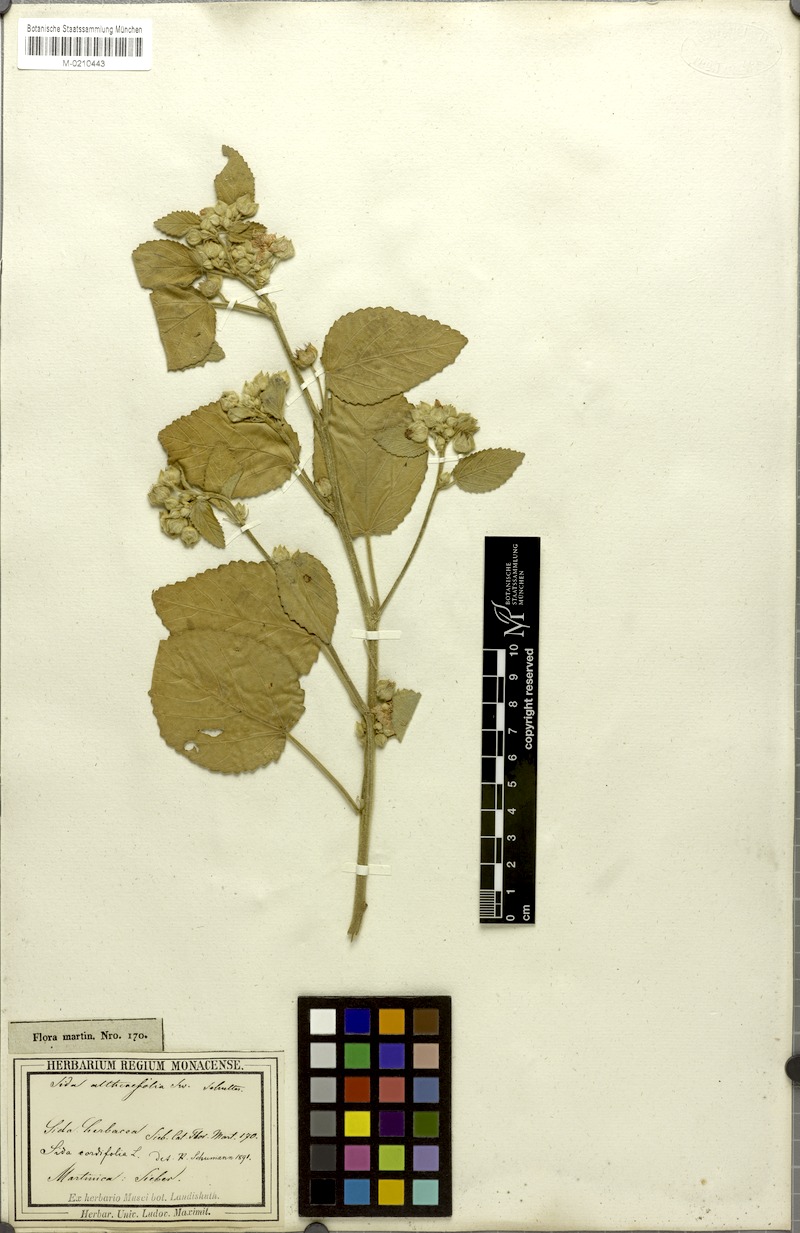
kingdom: Plantae
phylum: Tracheophyta
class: Magnoliopsida
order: Malvales
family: Malvaceae
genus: Sida
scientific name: Sida cordifolia
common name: Ilima
